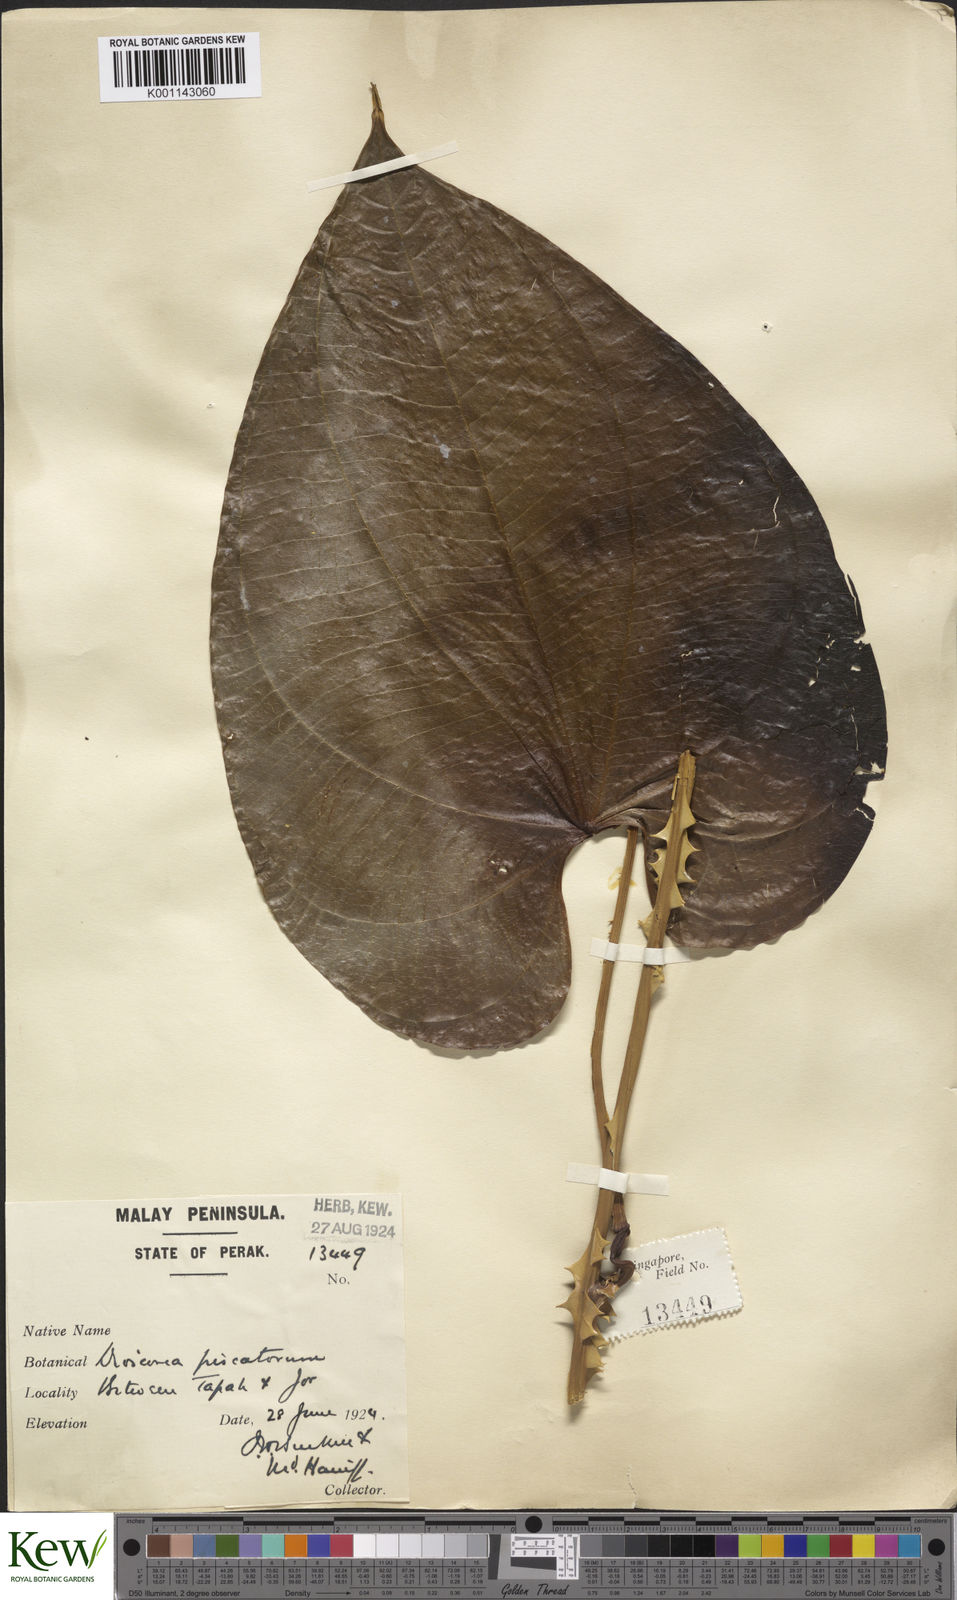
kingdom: Plantae
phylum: Tracheophyta
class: Liliopsida
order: Dioscoreales
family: Dioscoreaceae
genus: Dioscorea
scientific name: Dioscorea piscatorum
